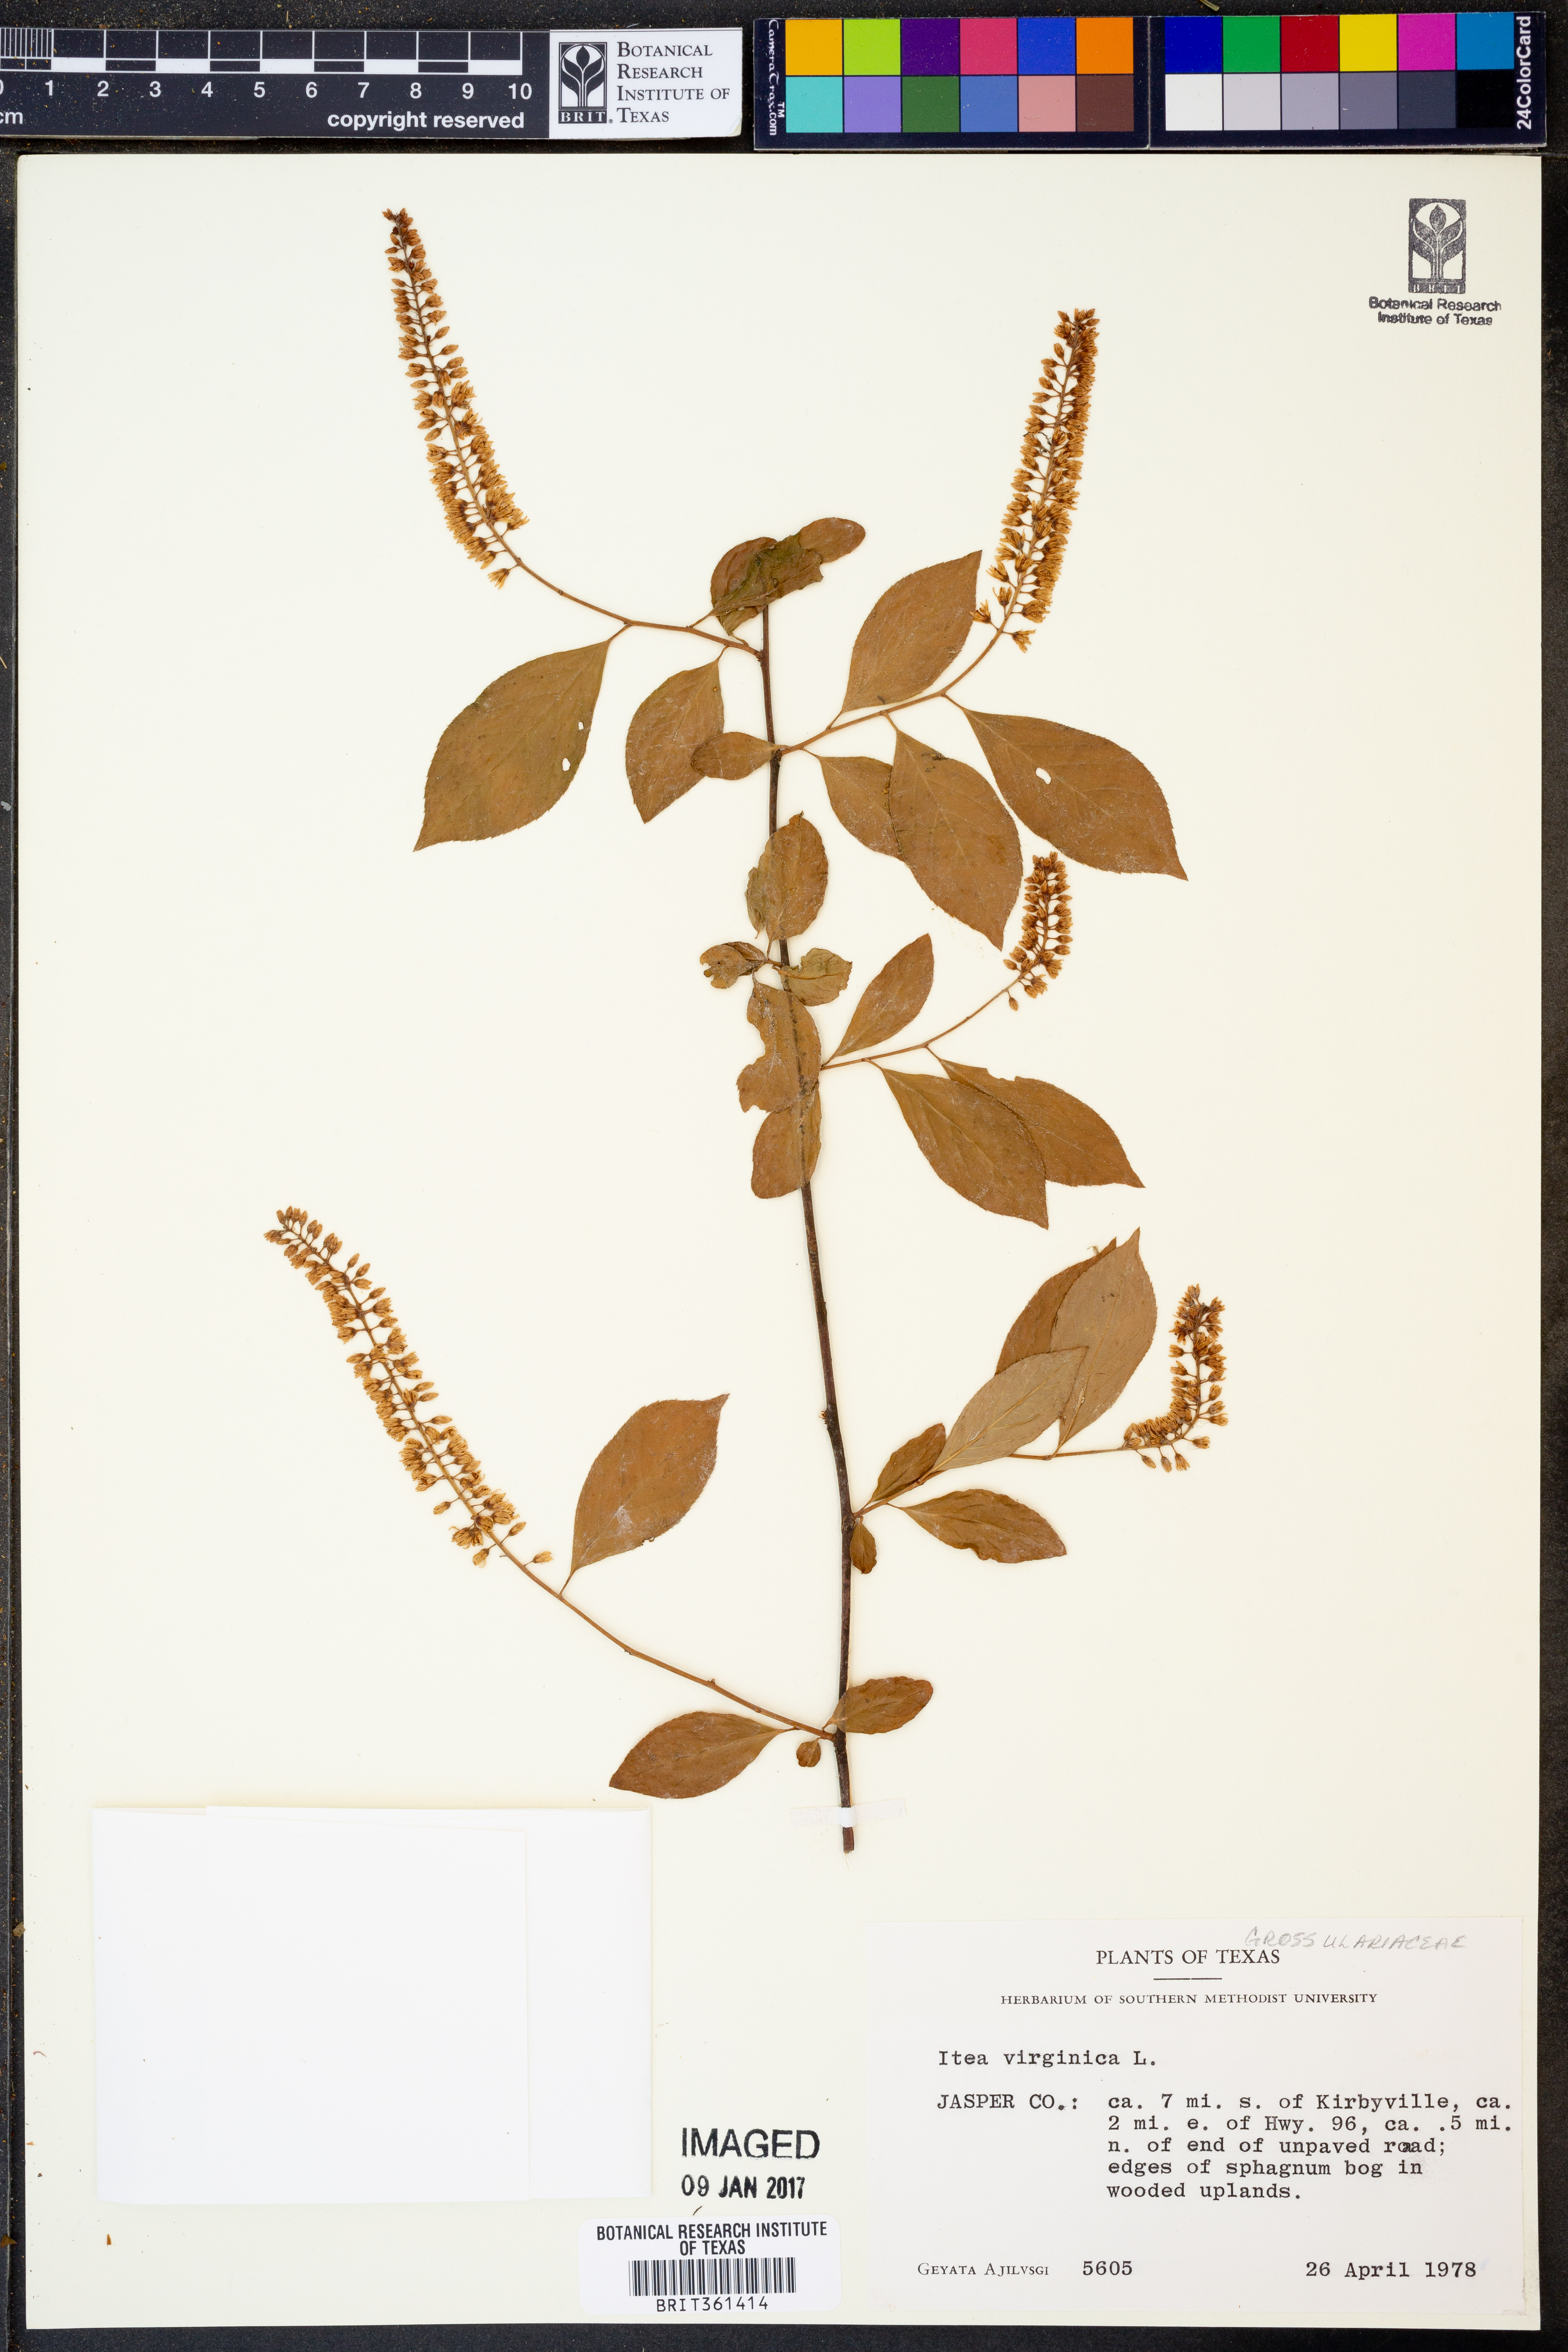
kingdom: Plantae
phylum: Tracheophyta
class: Magnoliopsida
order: Saxifragales
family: Iteaceae
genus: Itea
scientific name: Itea virginica
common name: Sweetspire
